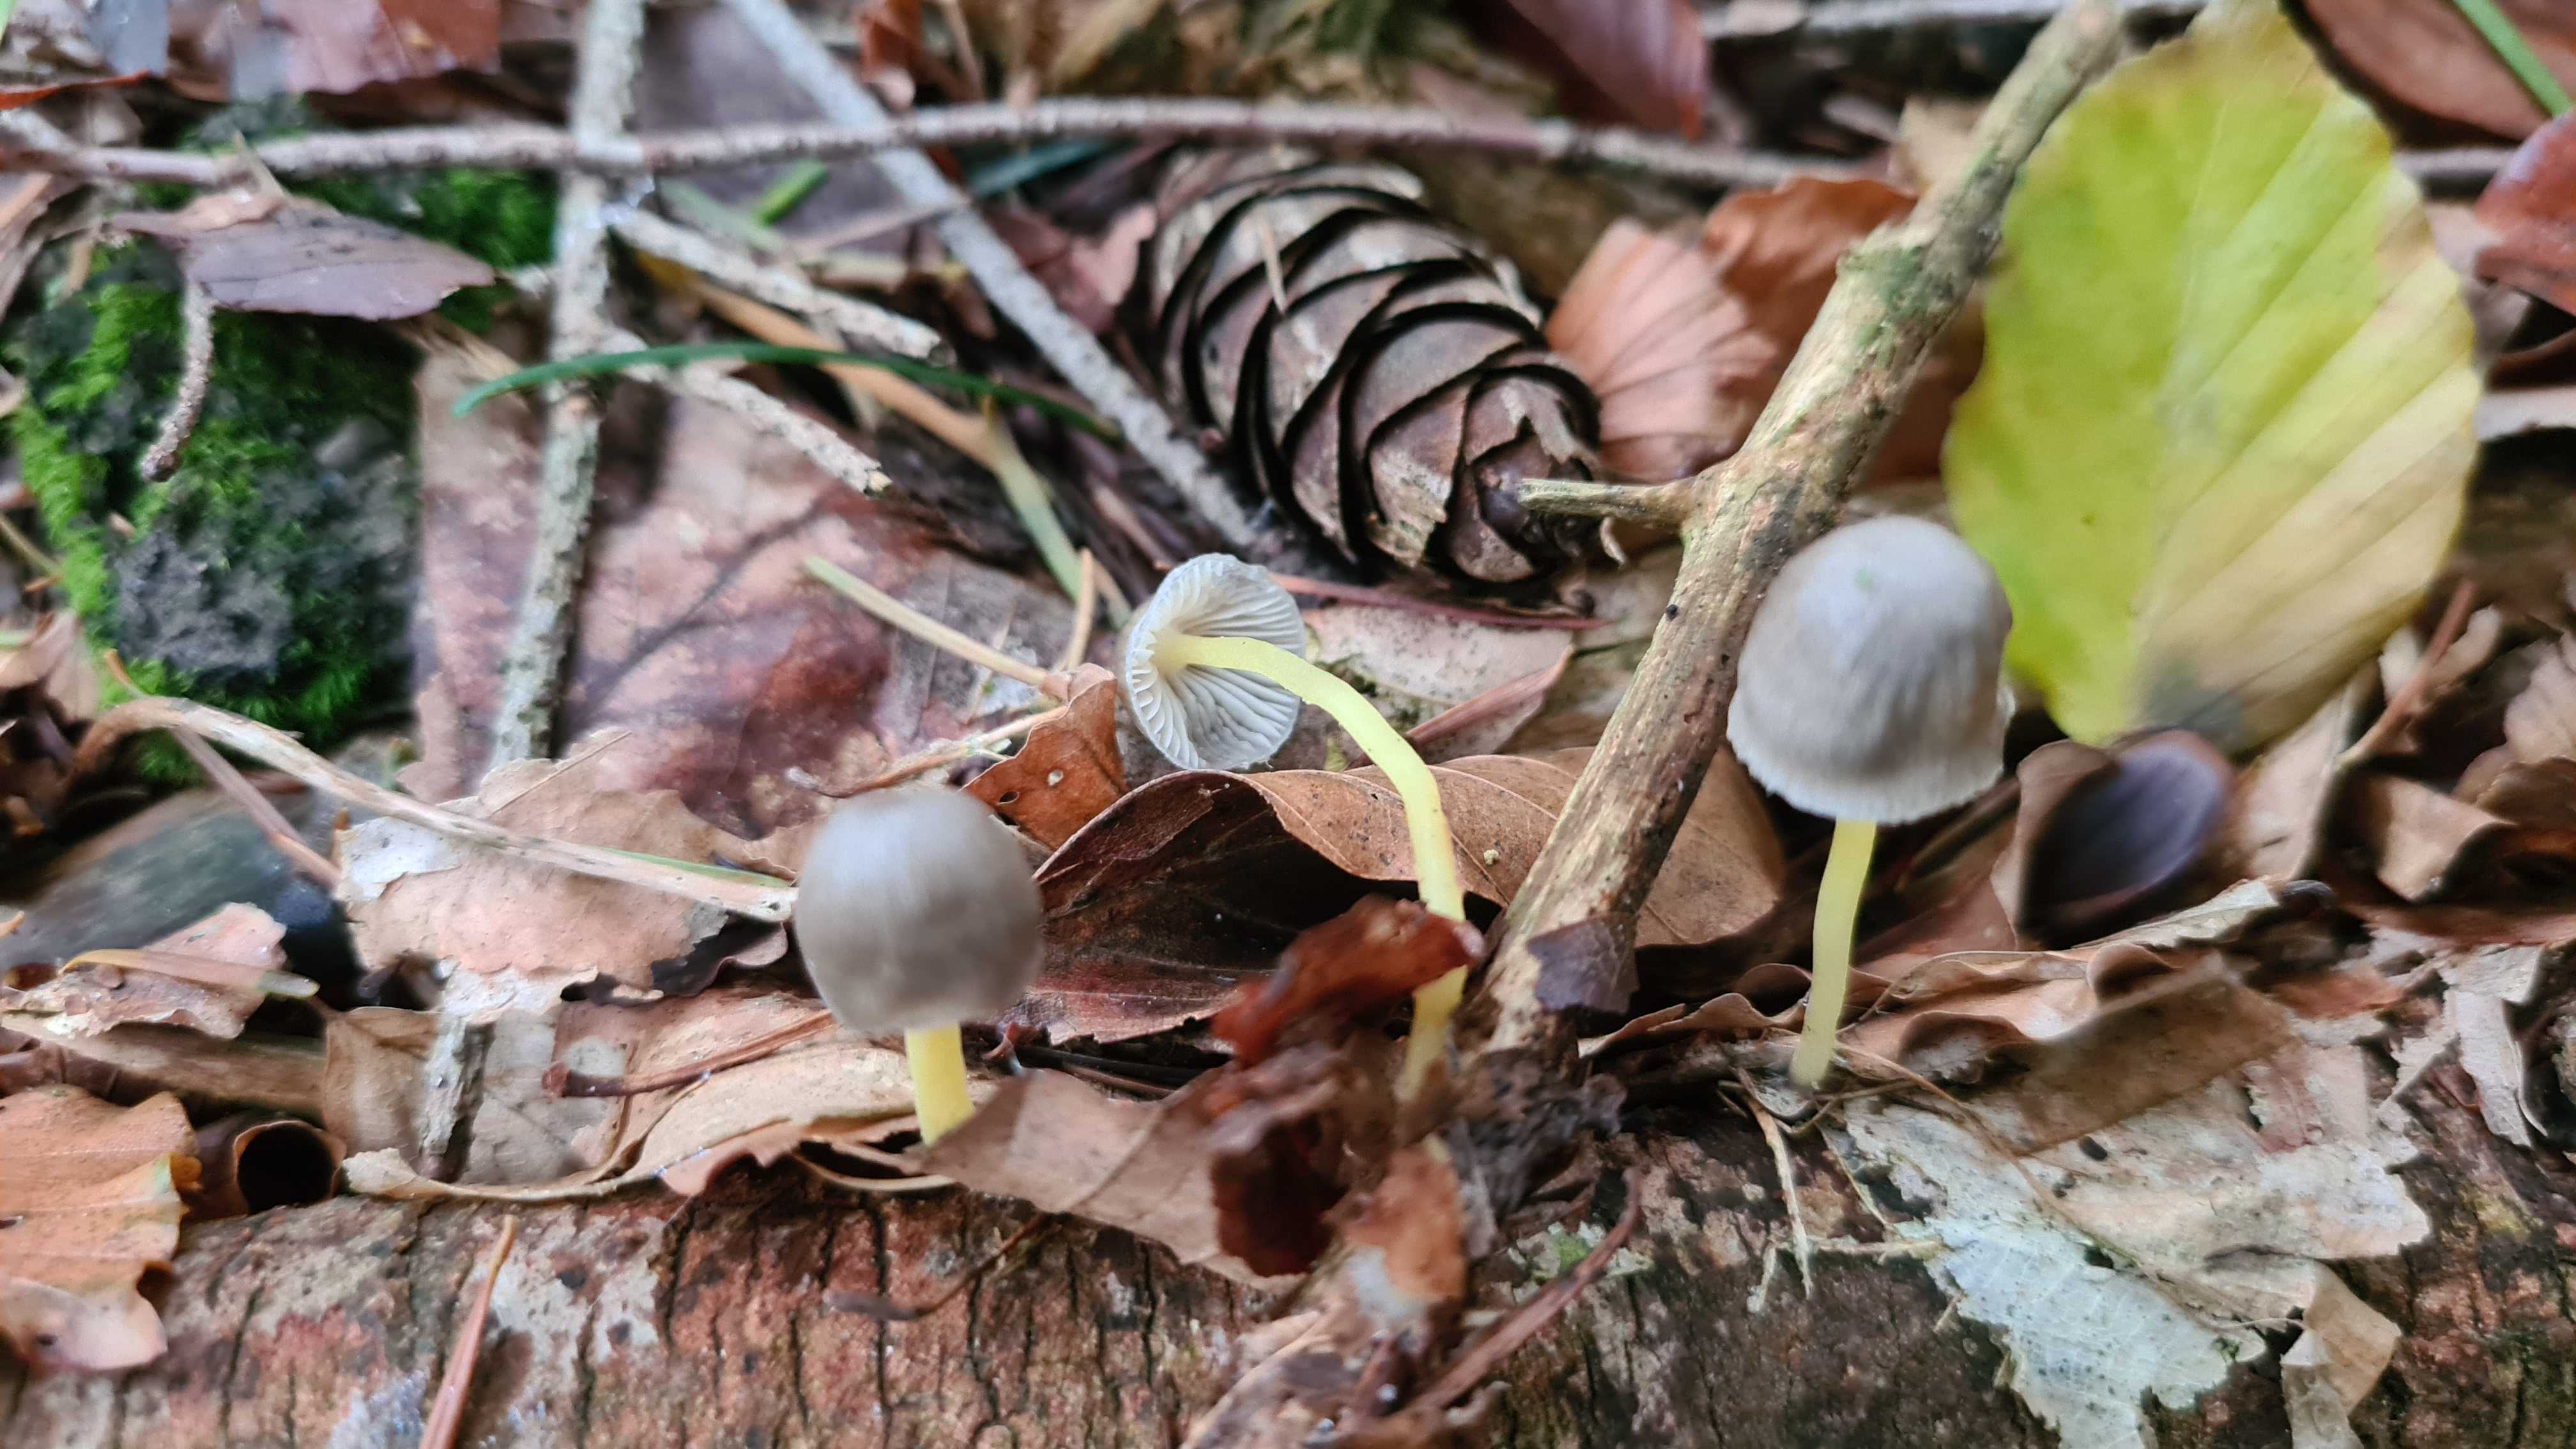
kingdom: Fungi
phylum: Basidiomycota
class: Agaricomycetes
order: Agaricales
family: Mycenaceae
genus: Mycena
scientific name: Mycena epipterygia
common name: gulstokket huesvamp
